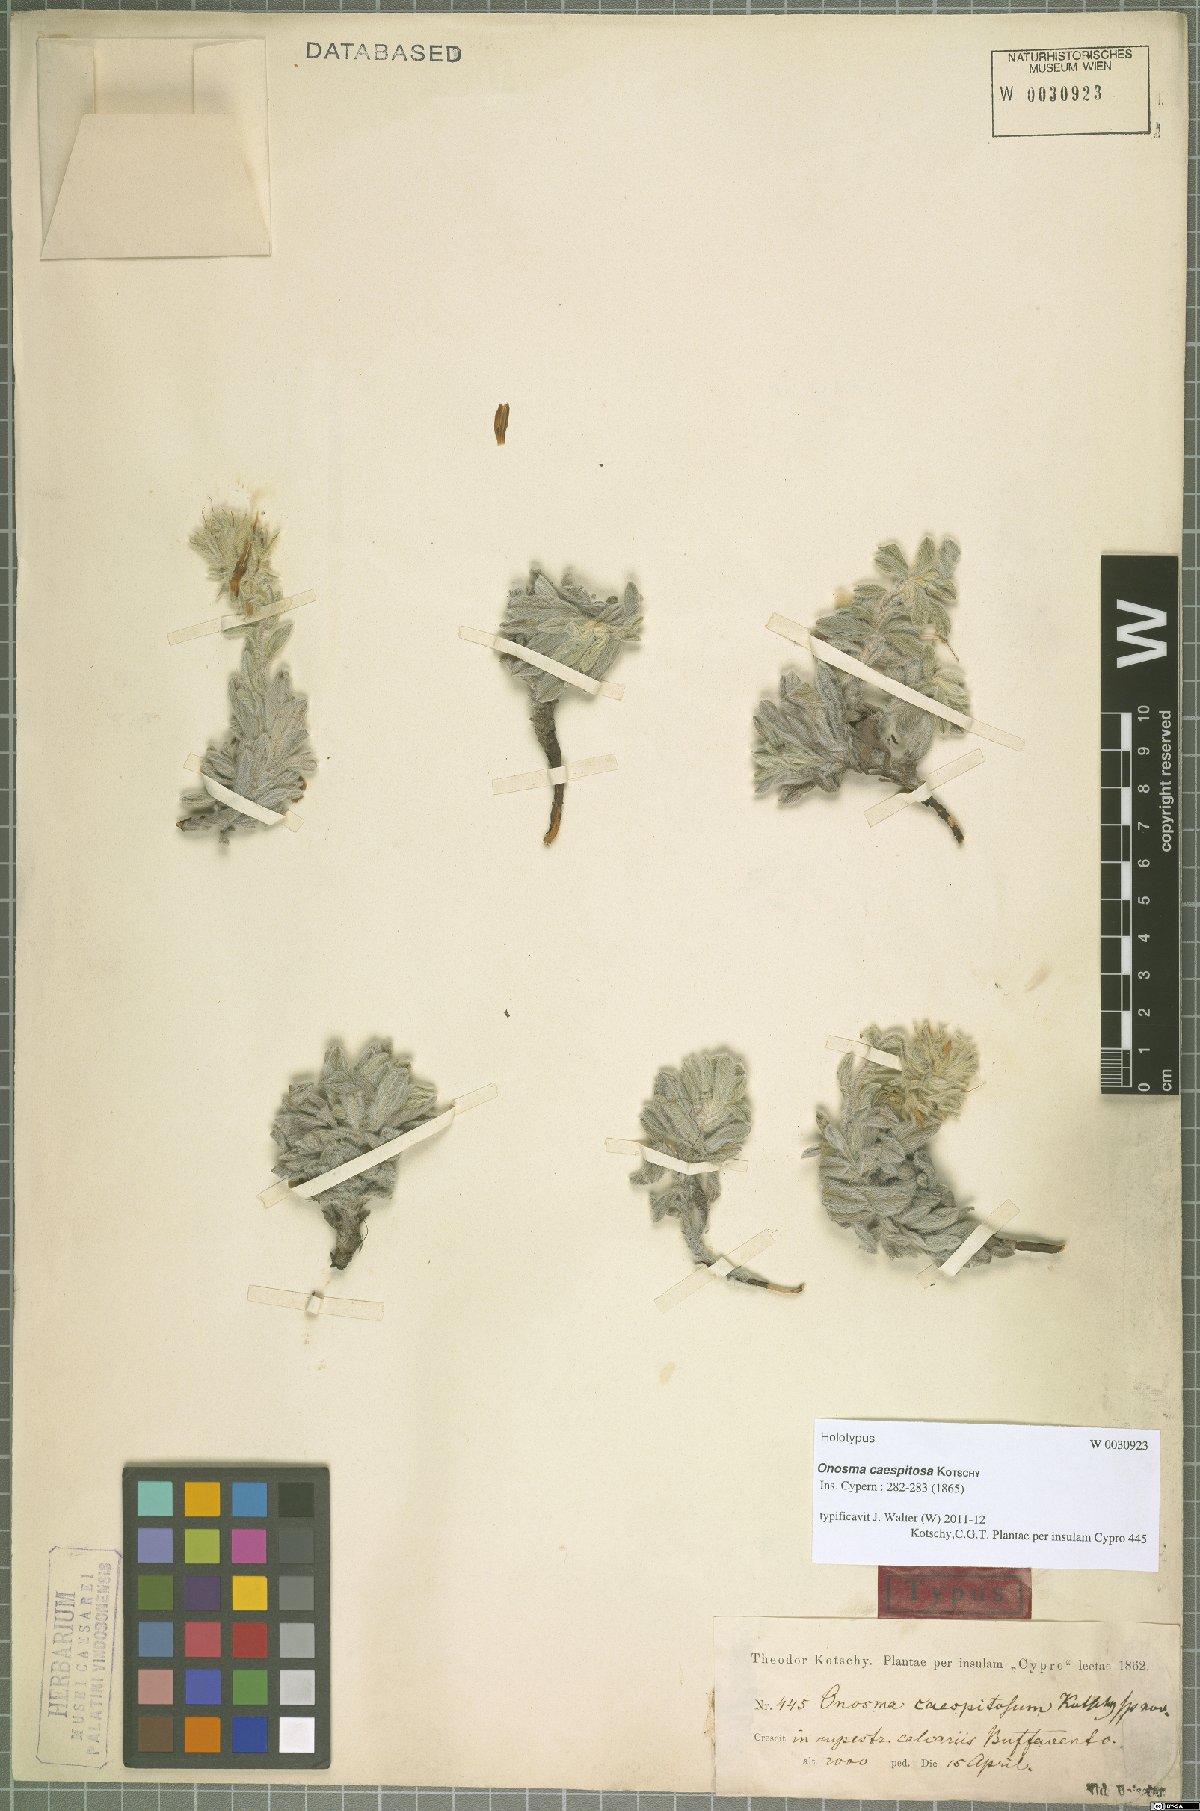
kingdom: Plantae
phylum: Tracheophyta
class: Magnoliopsida
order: Boraginales
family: Boraginaceae
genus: Onosma
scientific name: Onosma caespitosa
